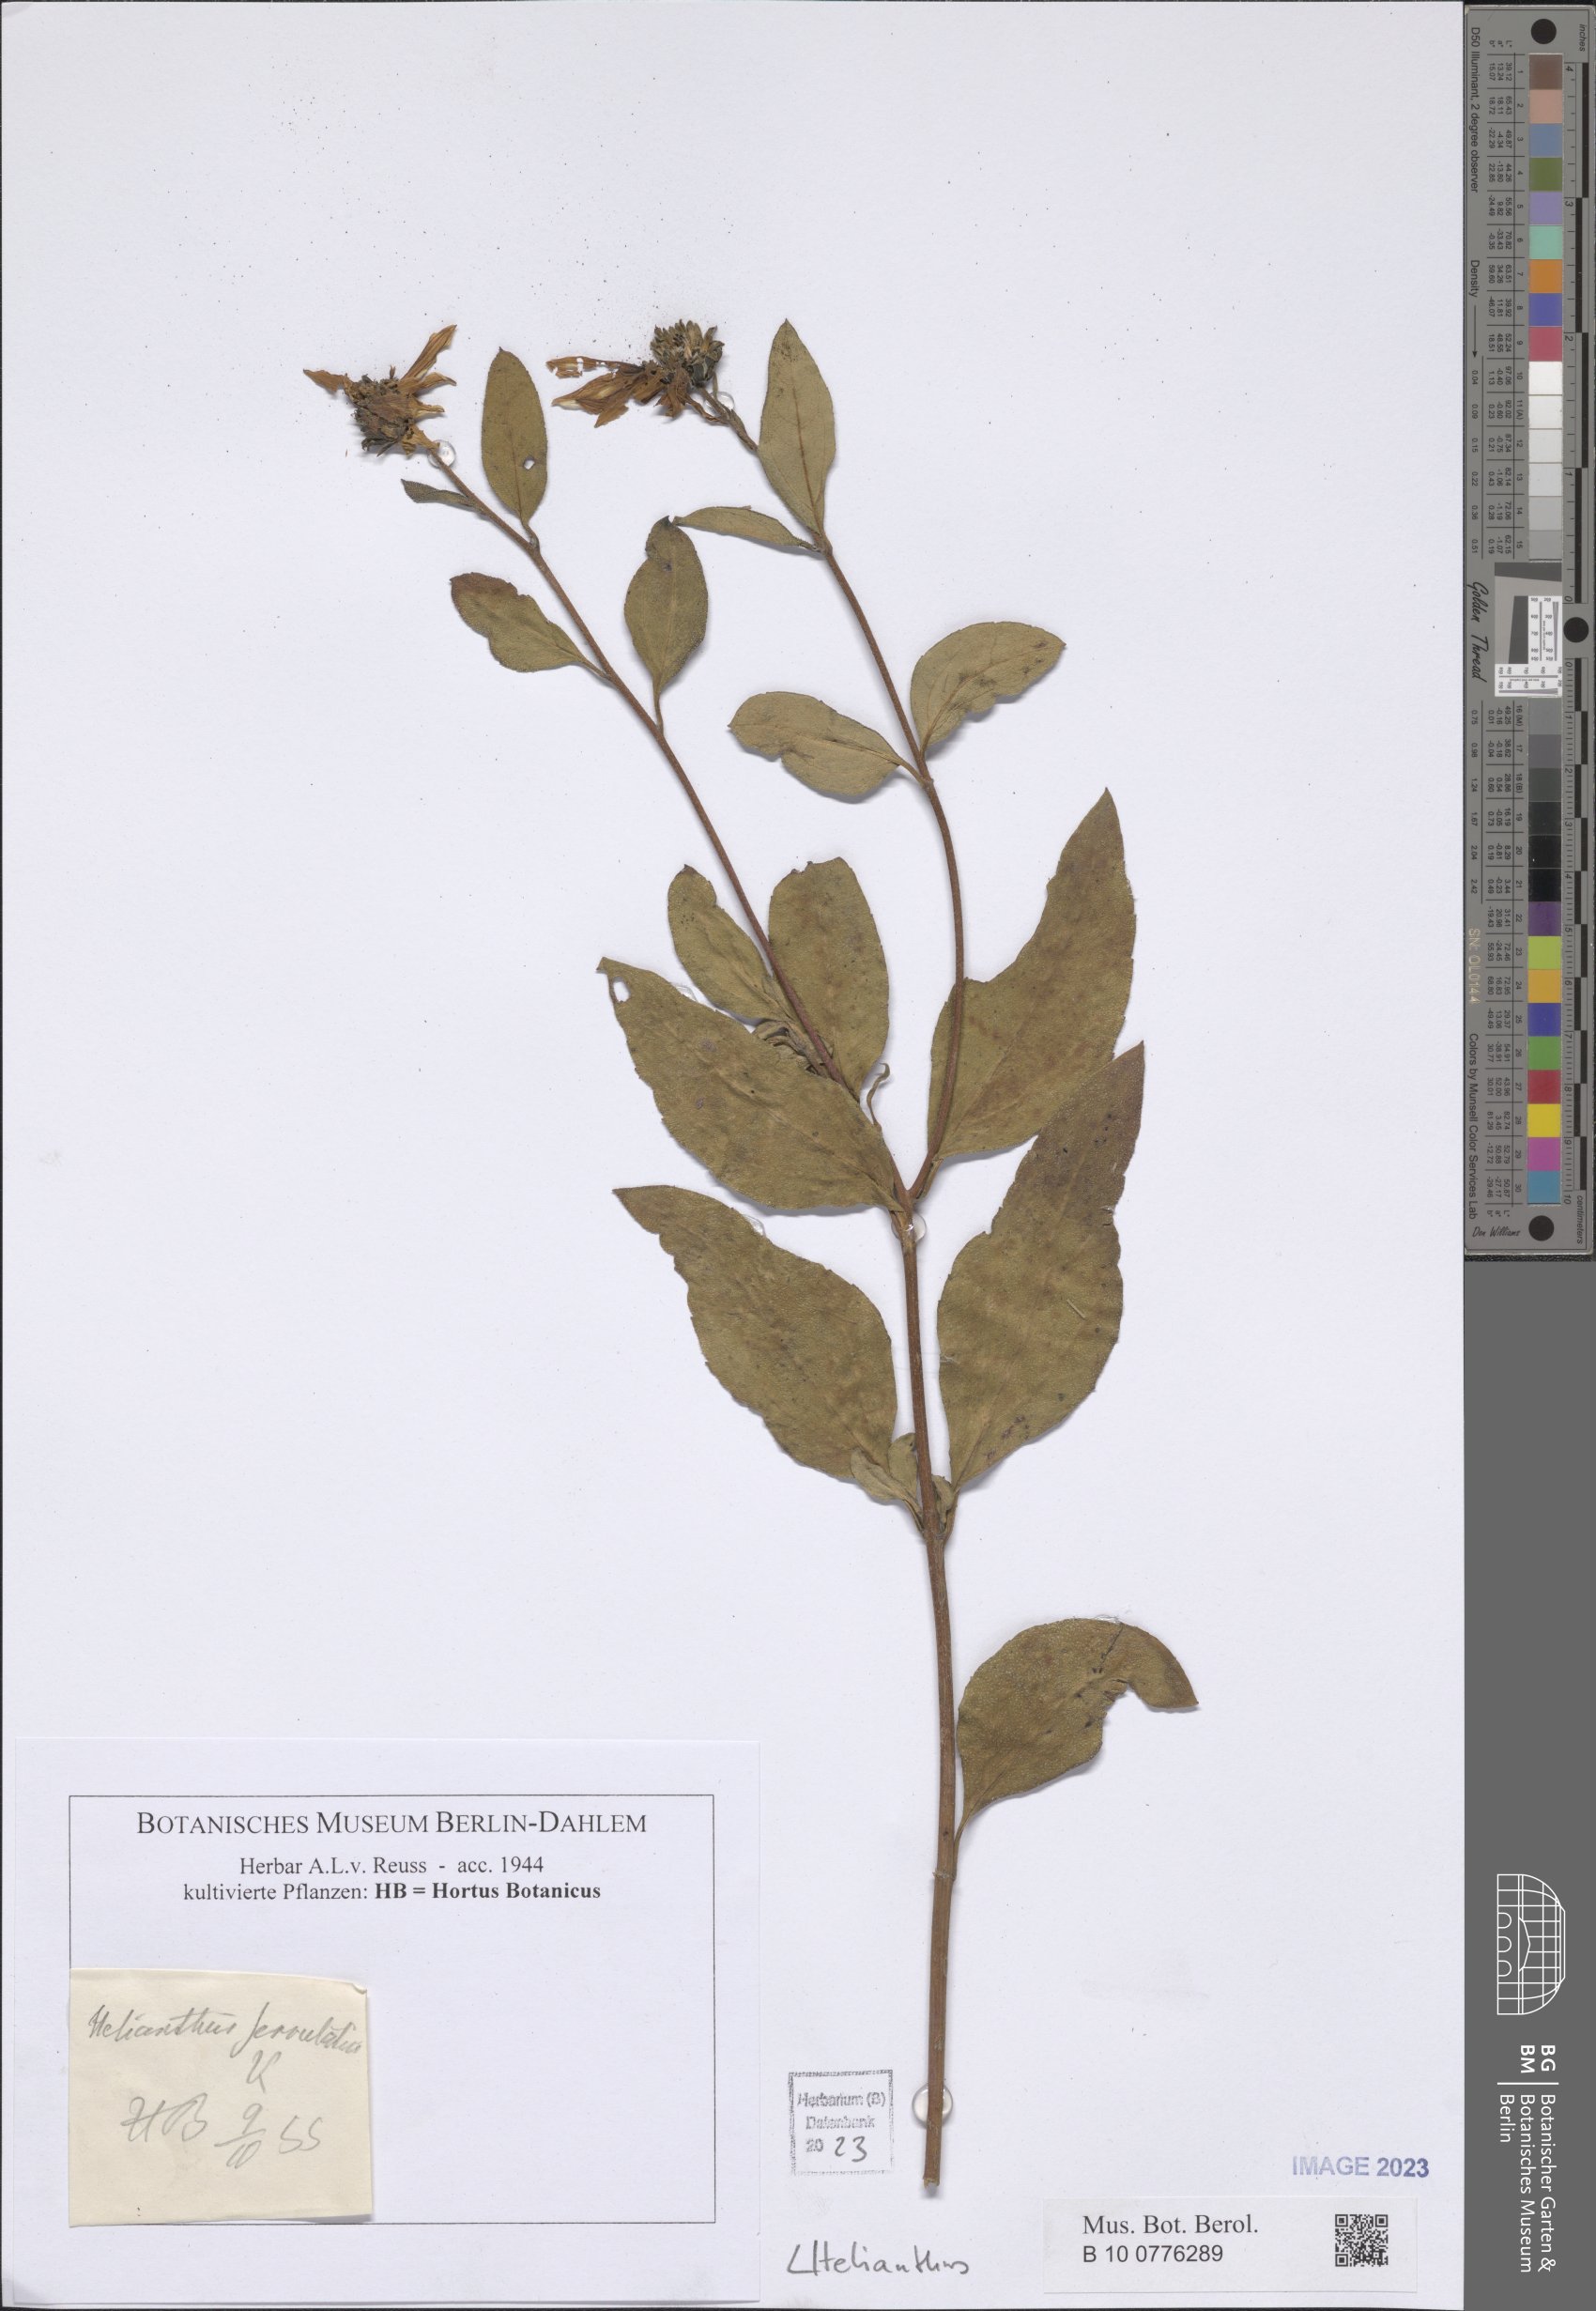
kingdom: Plantae
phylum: Tracheophyta
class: Magnoliopsida
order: Asterales
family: Asteraceae
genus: Helianthus
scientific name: Helianthus
